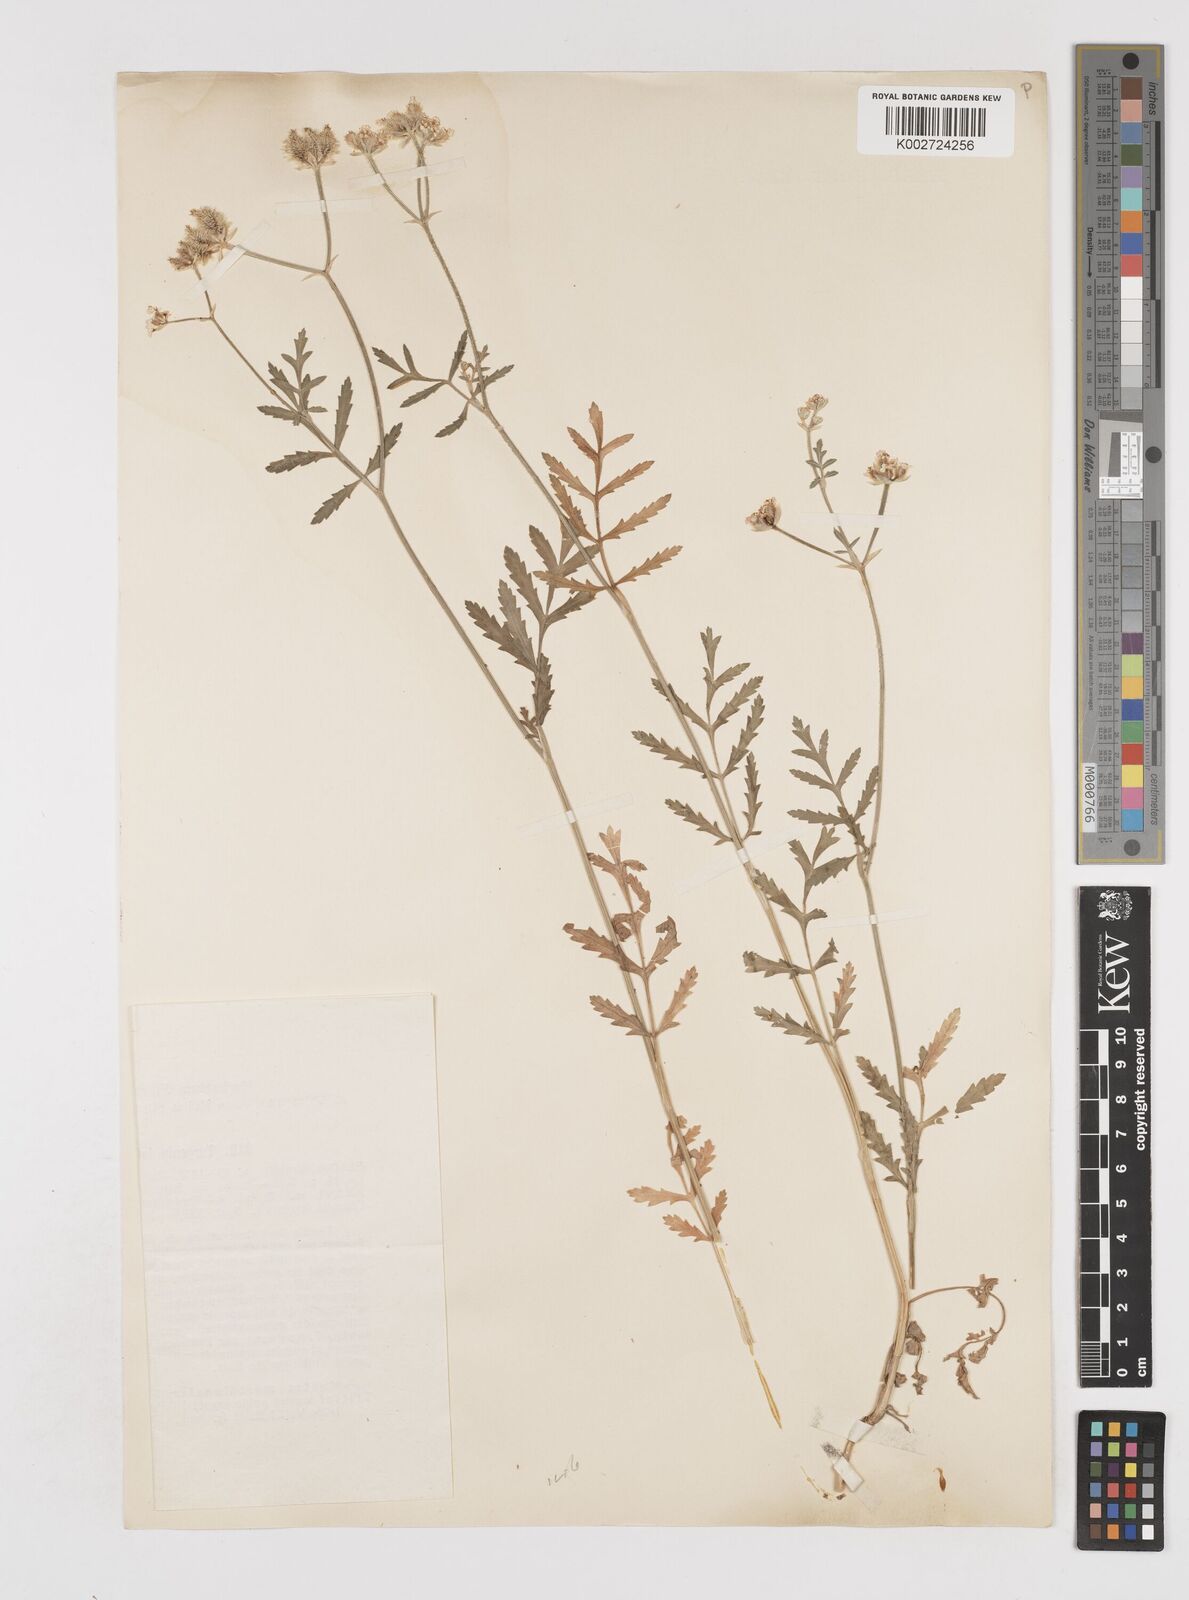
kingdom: Plantae
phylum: Tracheophyta
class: Magnoliopsida
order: Apiales
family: Apiaceae
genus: Turgenia
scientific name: Turgenia latifolia
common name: Greater bur-parsley
